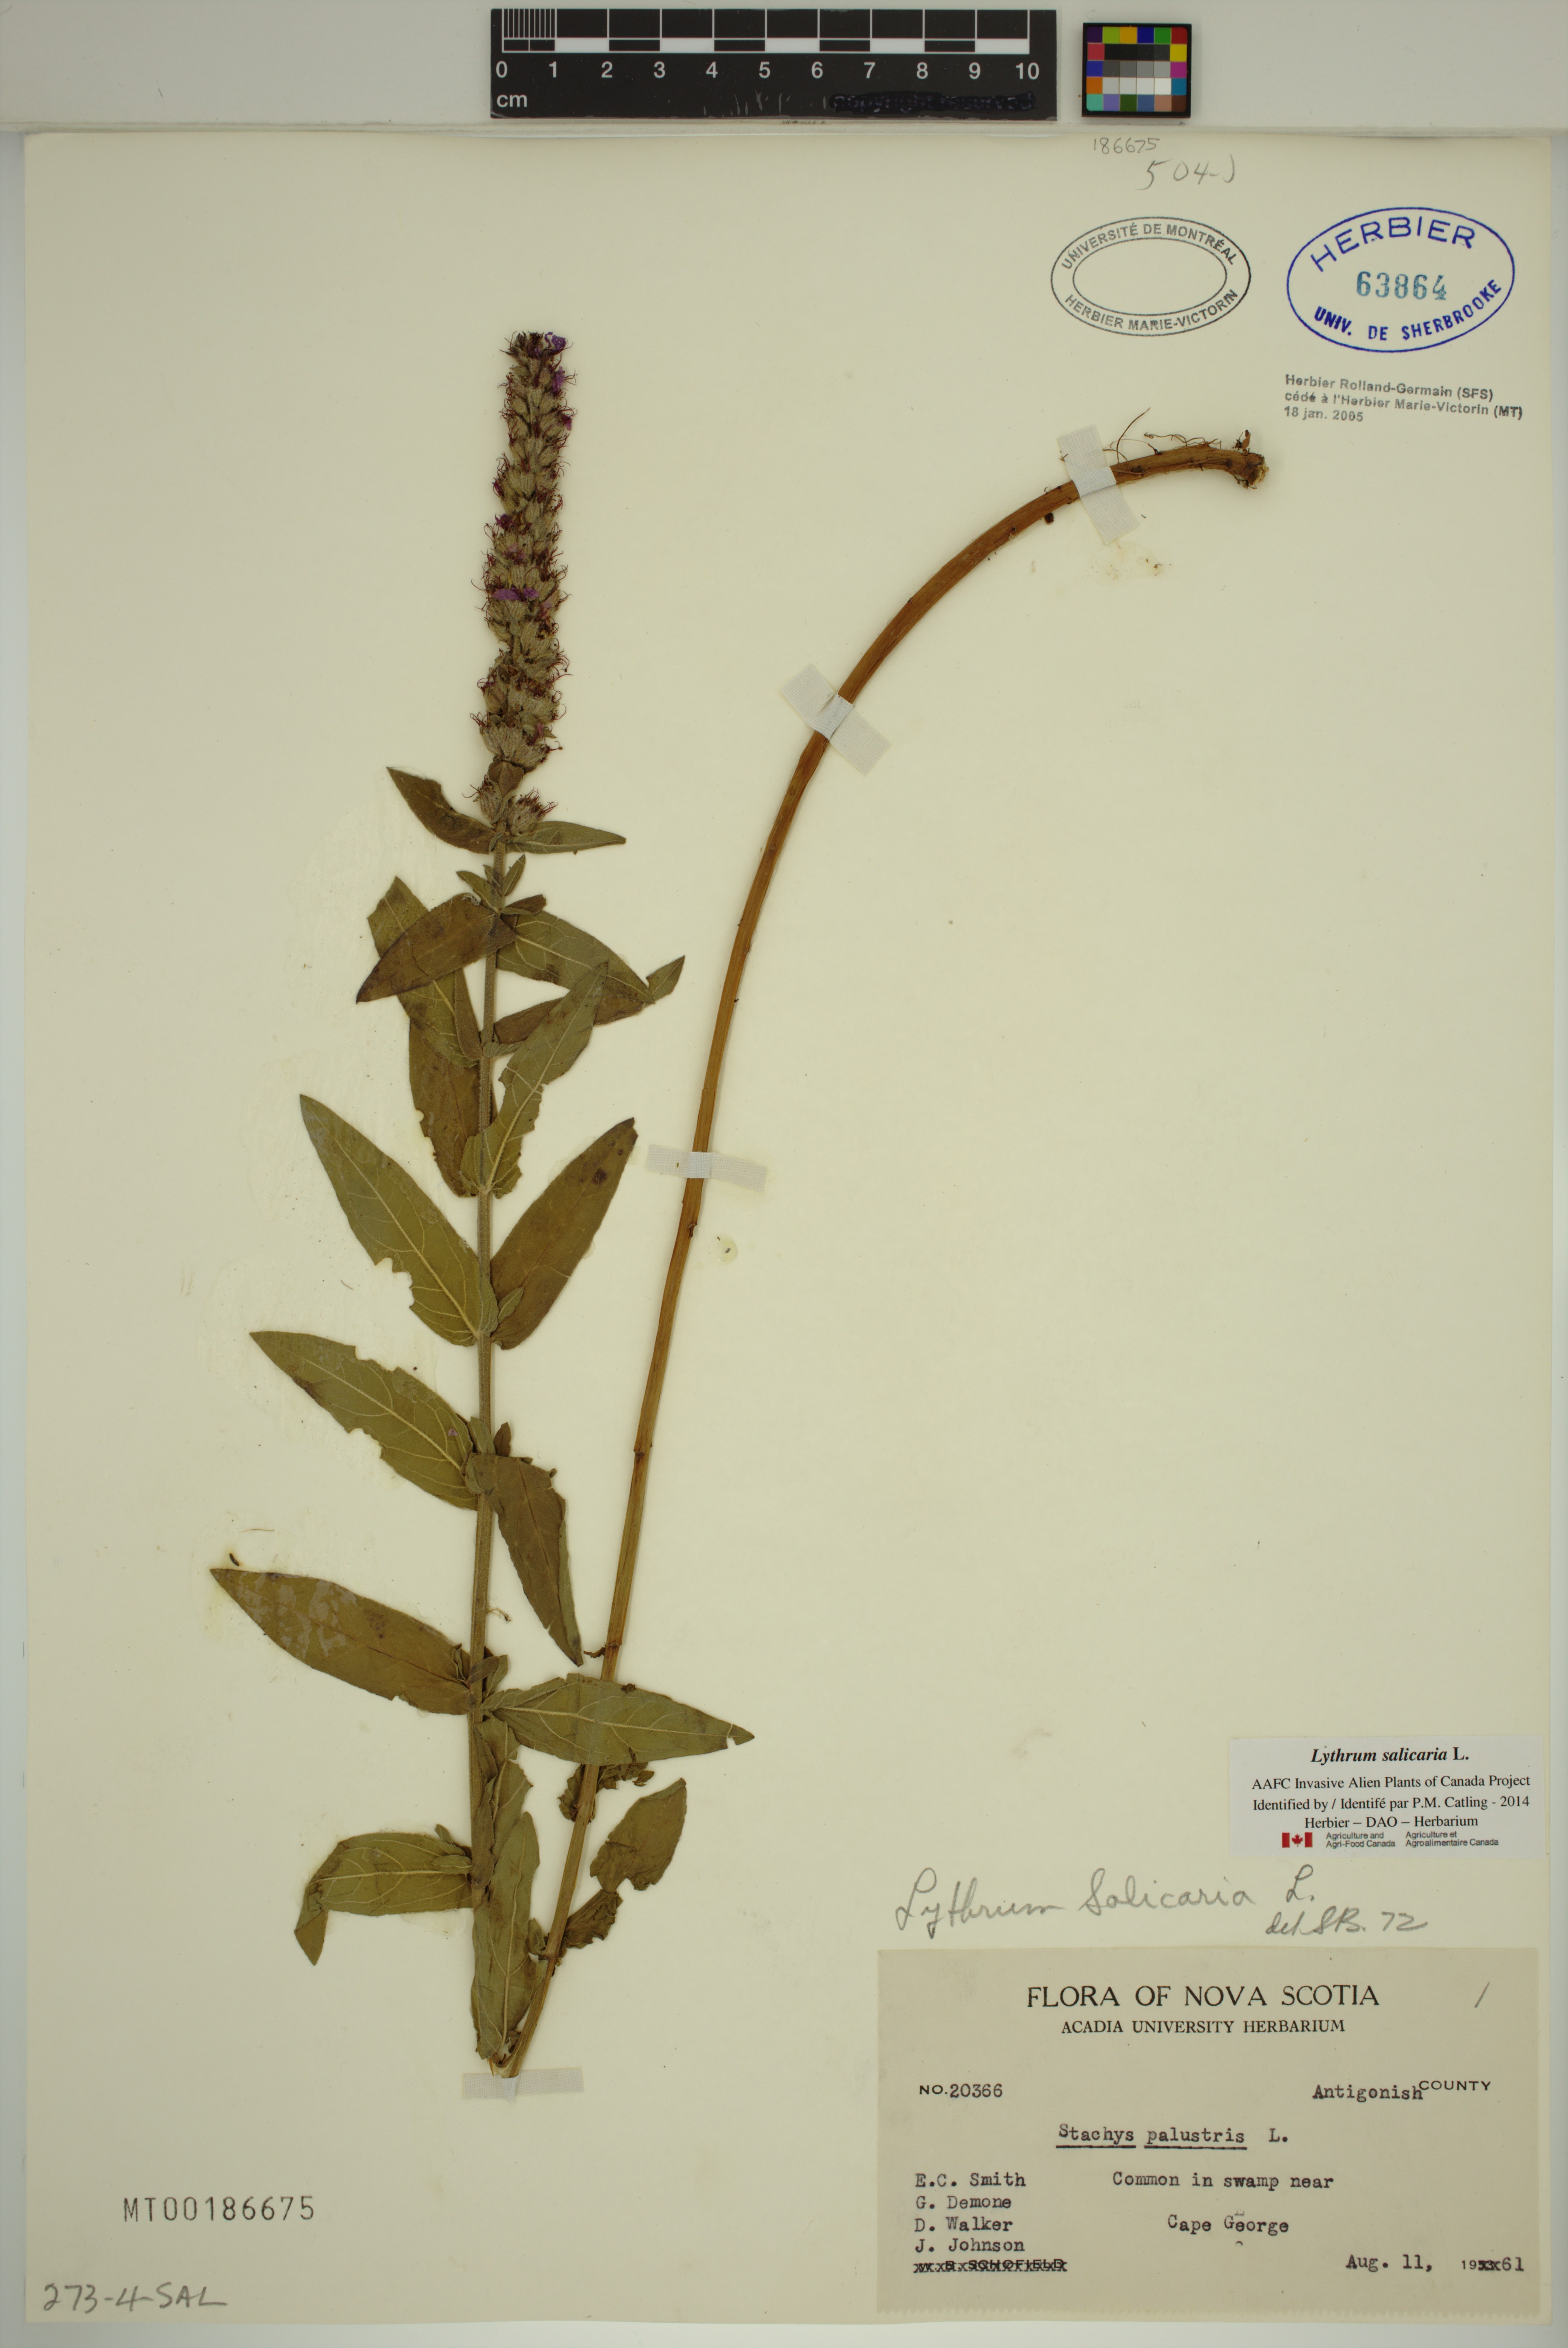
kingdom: Plantae
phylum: Tracheophyta
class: Magnoliopsida
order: Myrtales
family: Lythraceae
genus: Lythrum
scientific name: Lythrum salicaria
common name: Purple loosestrife
